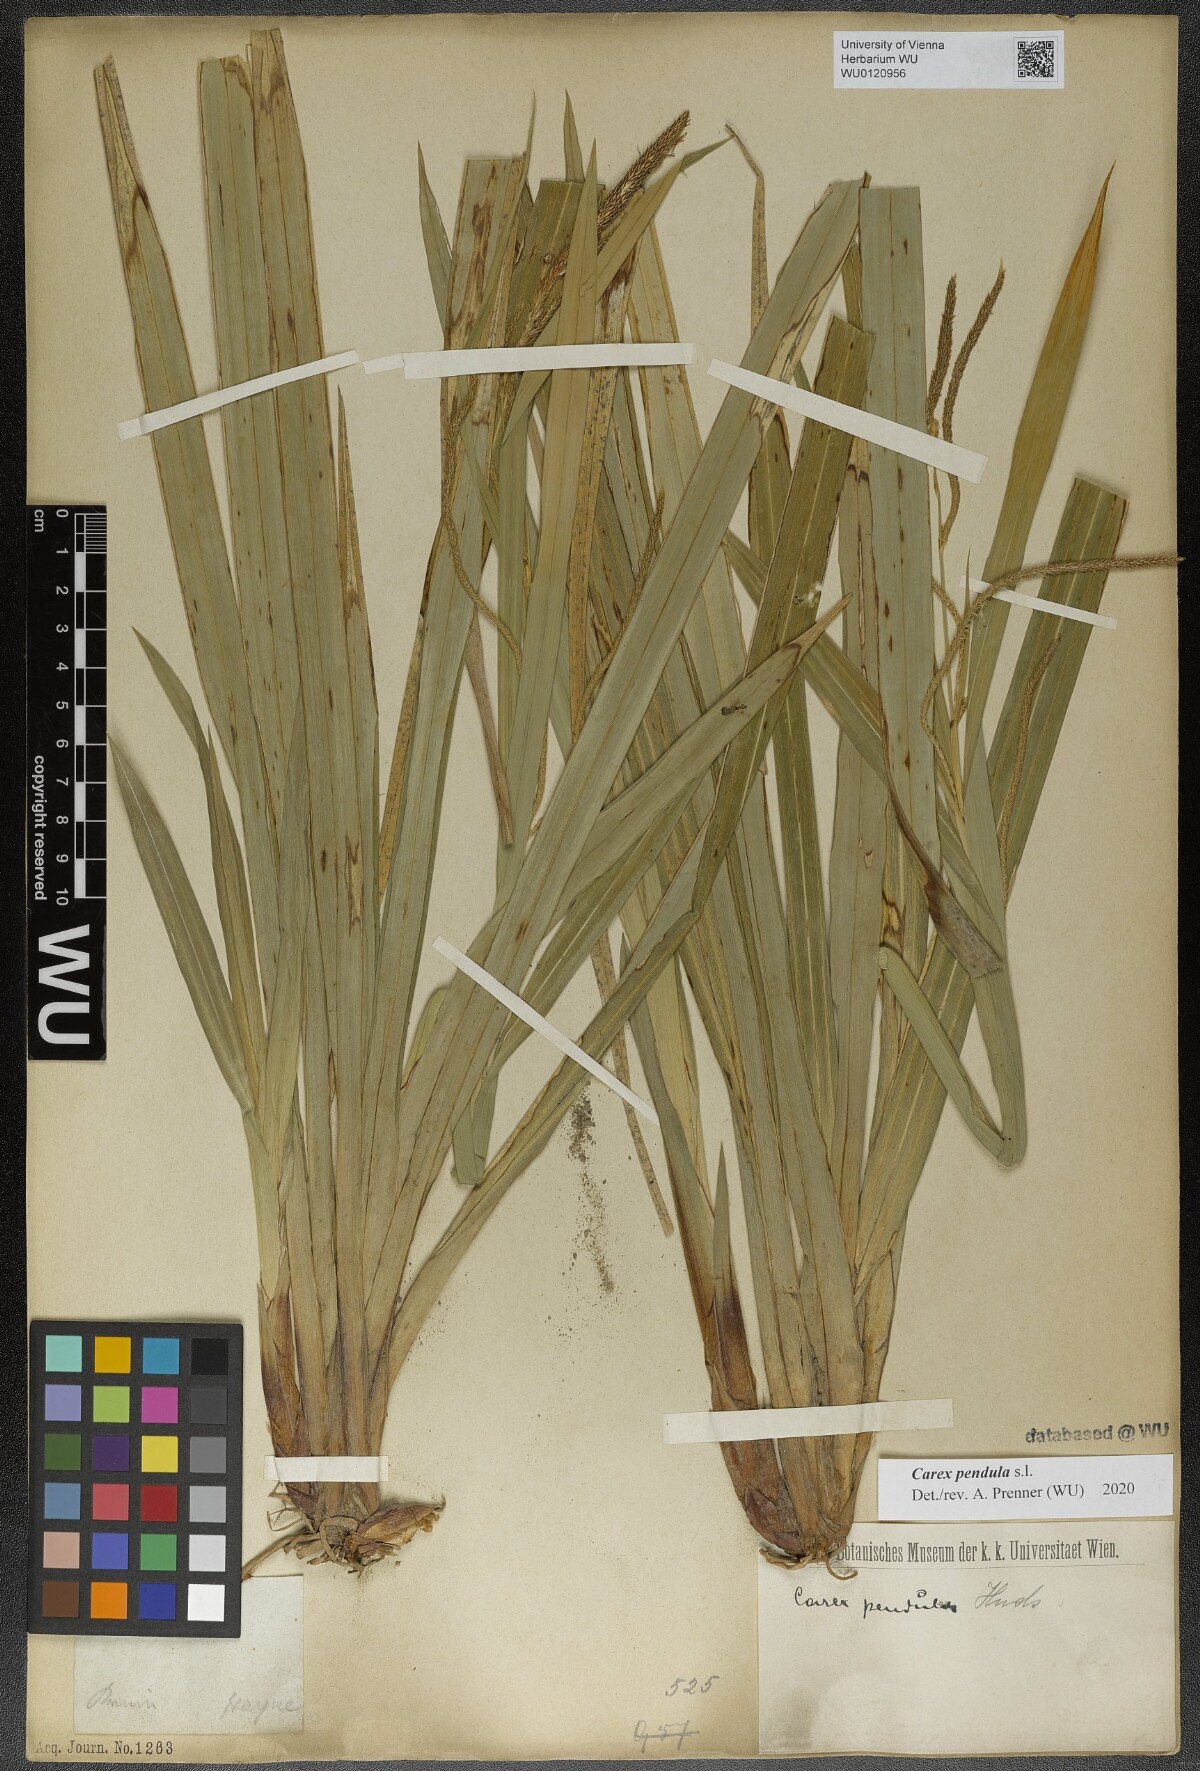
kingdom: Plantae
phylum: Tracheophyta
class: Liliopsida
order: Poales
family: Cyperaceae
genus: Carex
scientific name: Carex pendula
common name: Pendulous sedge
